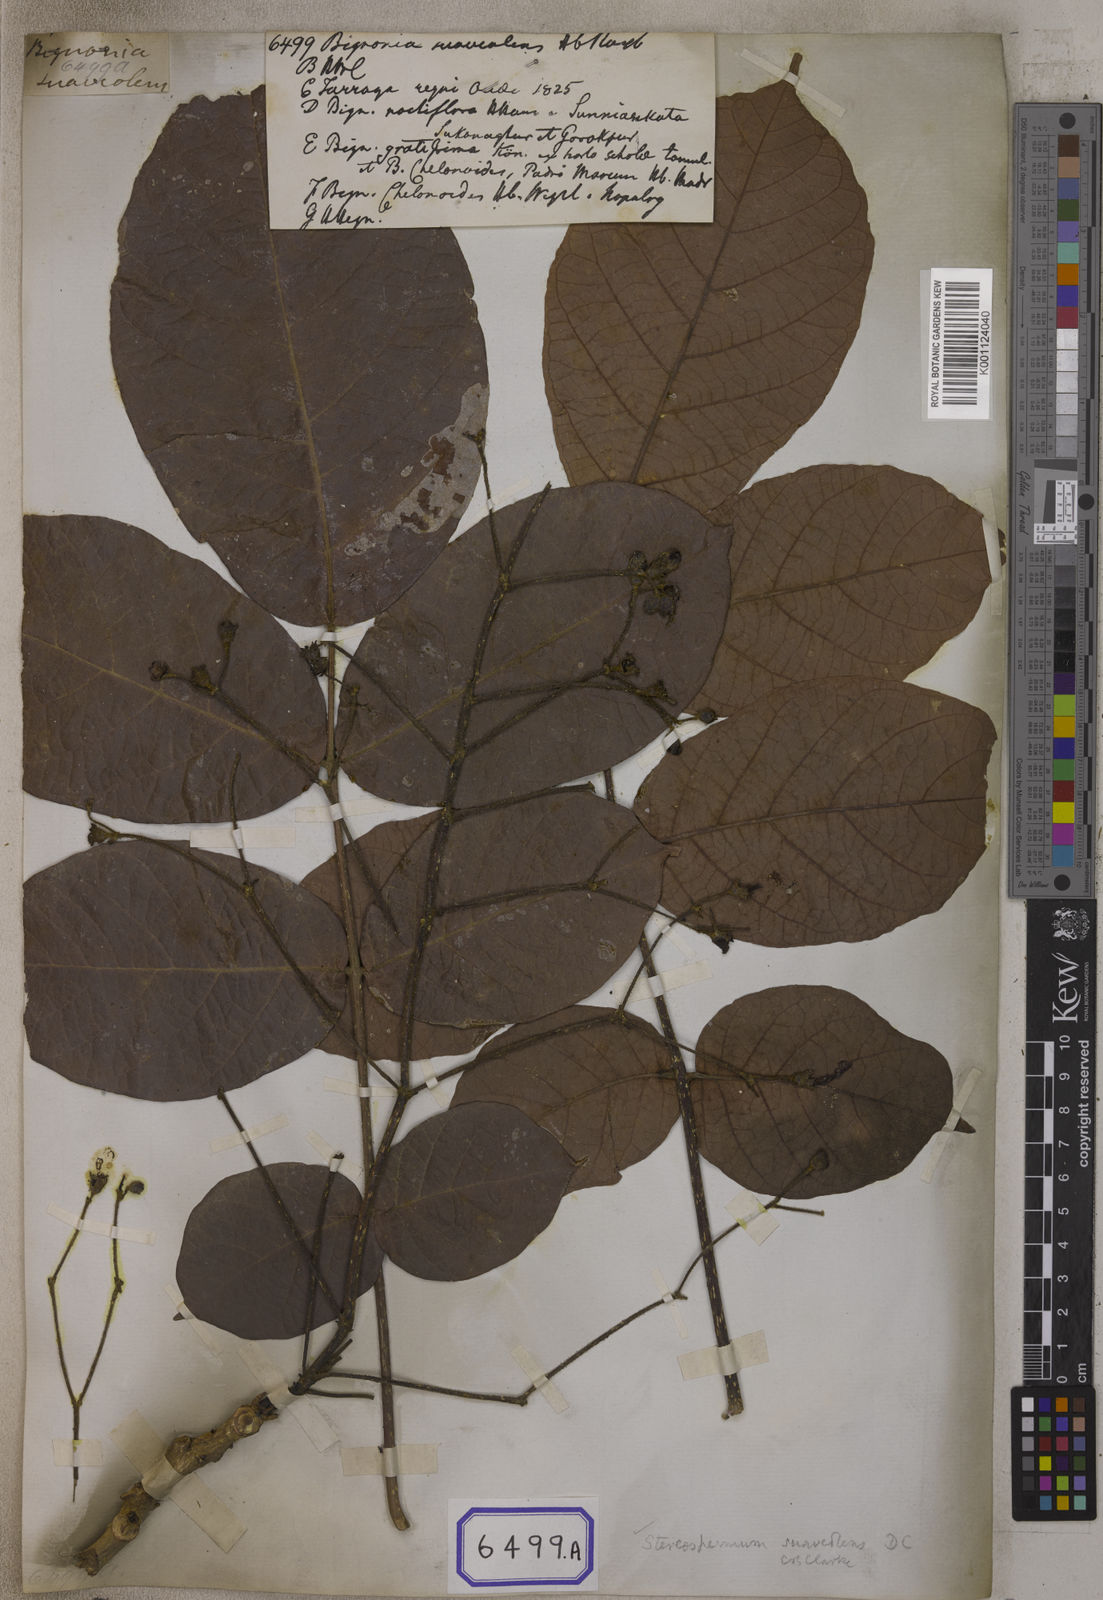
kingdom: Plantae
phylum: Tracheophyta
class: Magnoliopsida
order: Lamiales
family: Bignoniaceae
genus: Stereospermum
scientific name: Stereospermum chelonoides
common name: Fragrant padritree
